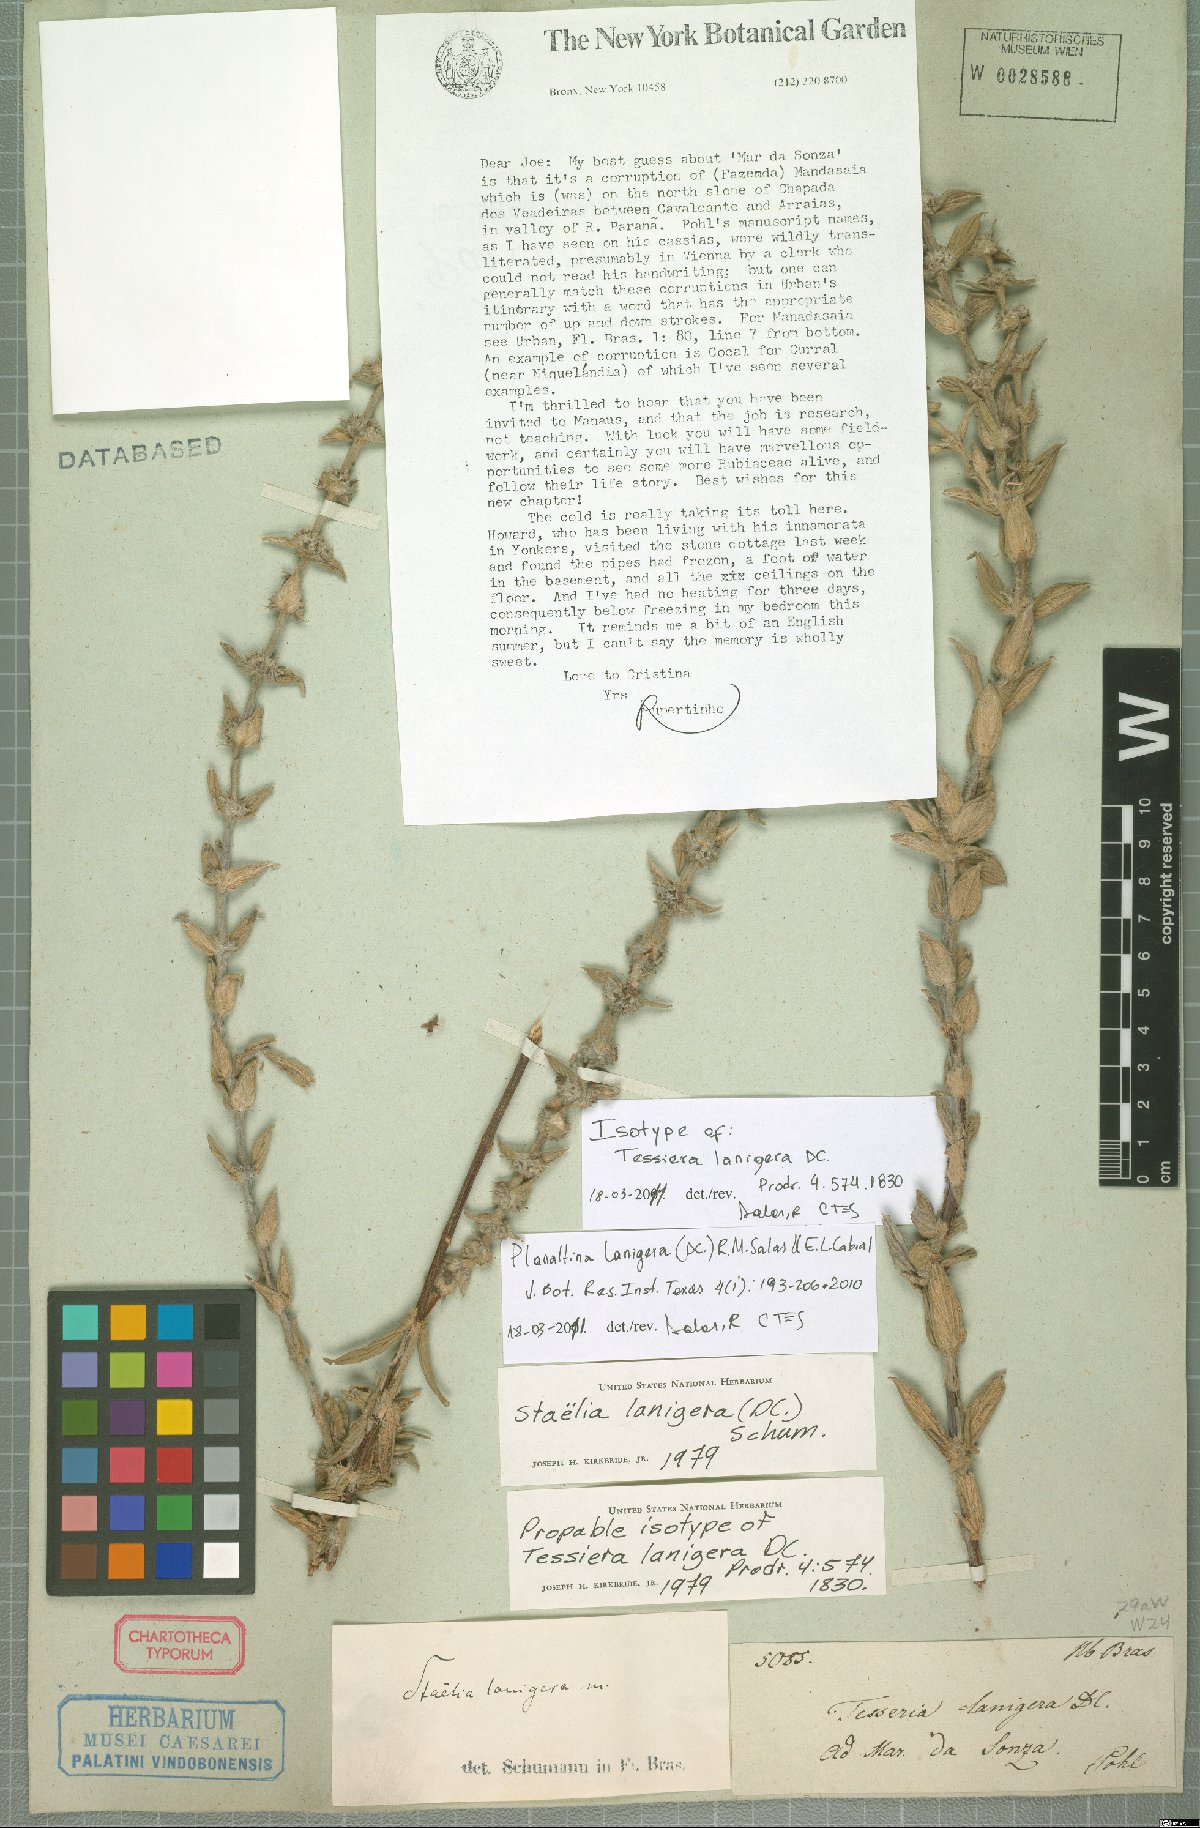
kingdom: Plantae
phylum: Tracheophyta
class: Magnoliopsida
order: Gentianales
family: Rubiaceae
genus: Planaltina
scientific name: Planaltina lanigera
